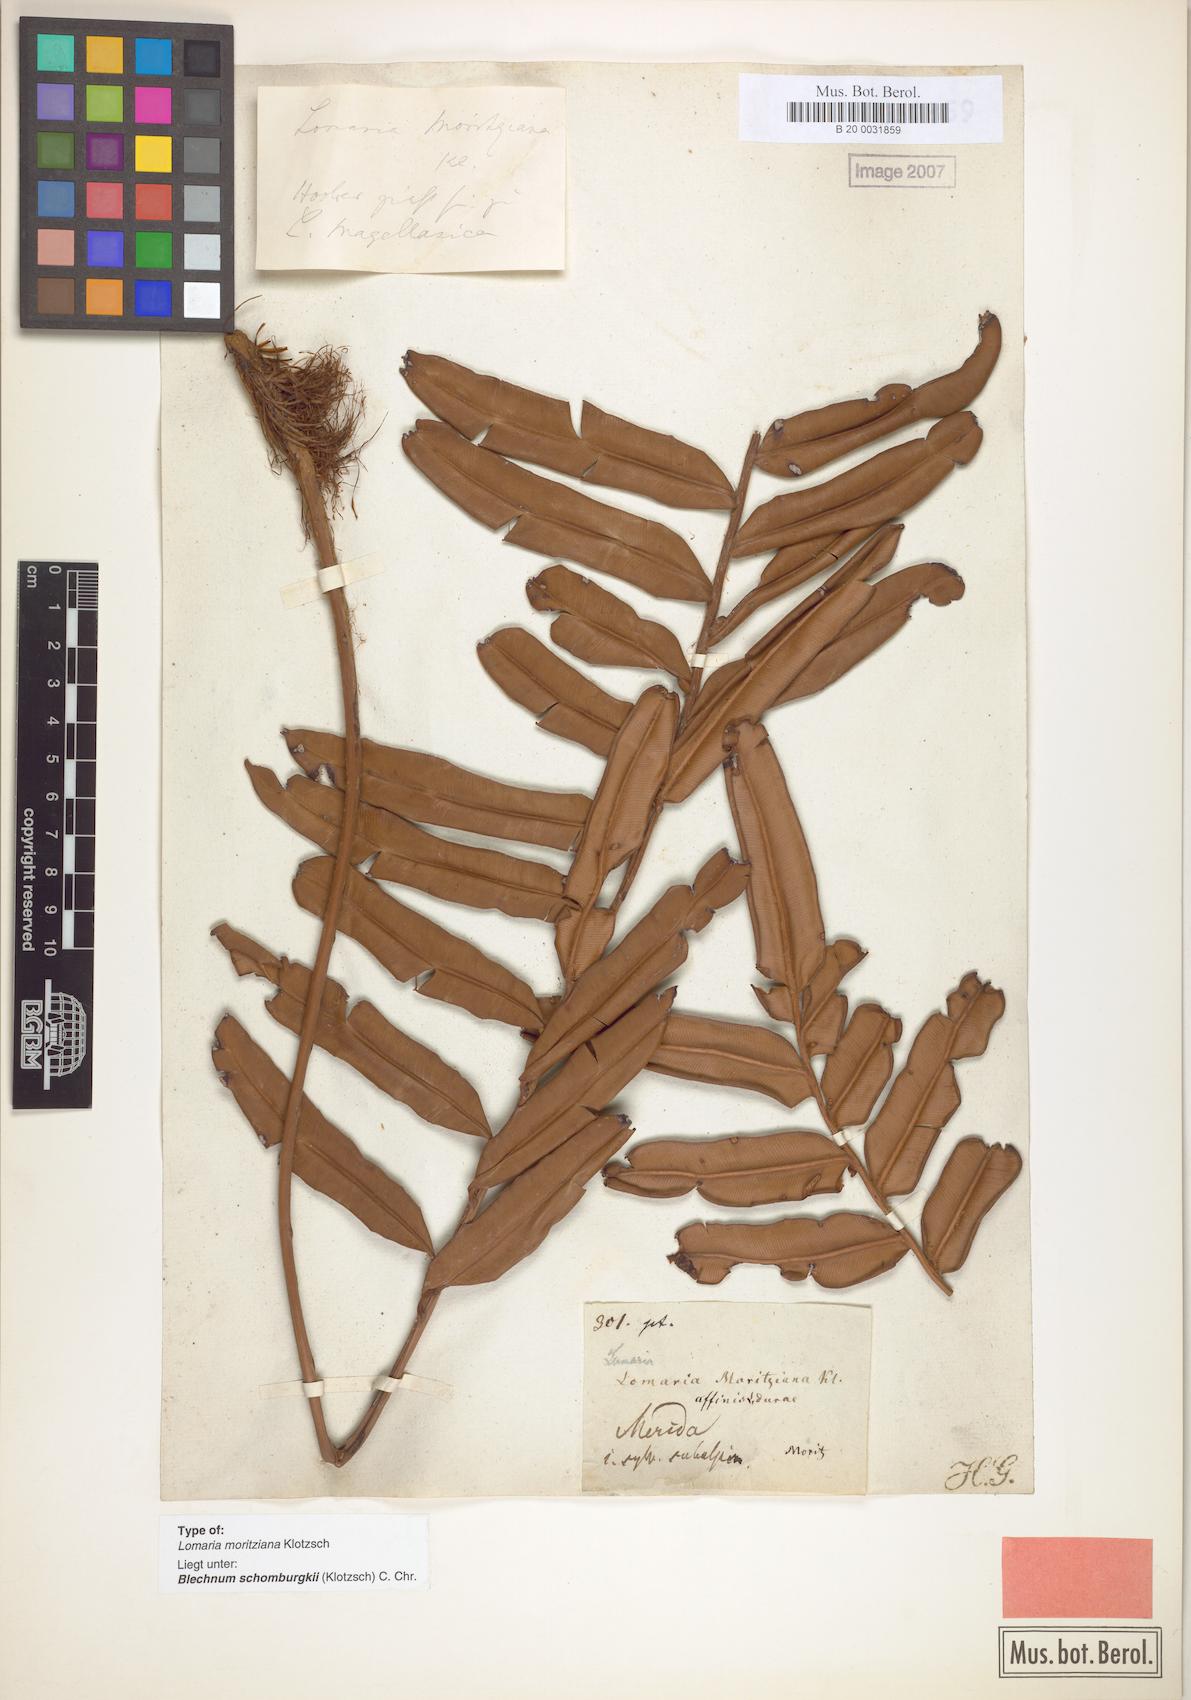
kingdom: Plantae
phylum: Tracheophyta
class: Polypodiopsida
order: Polypodiales
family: Blechnaceae
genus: Lomariocycas
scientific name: Lomariocycas moritziana
